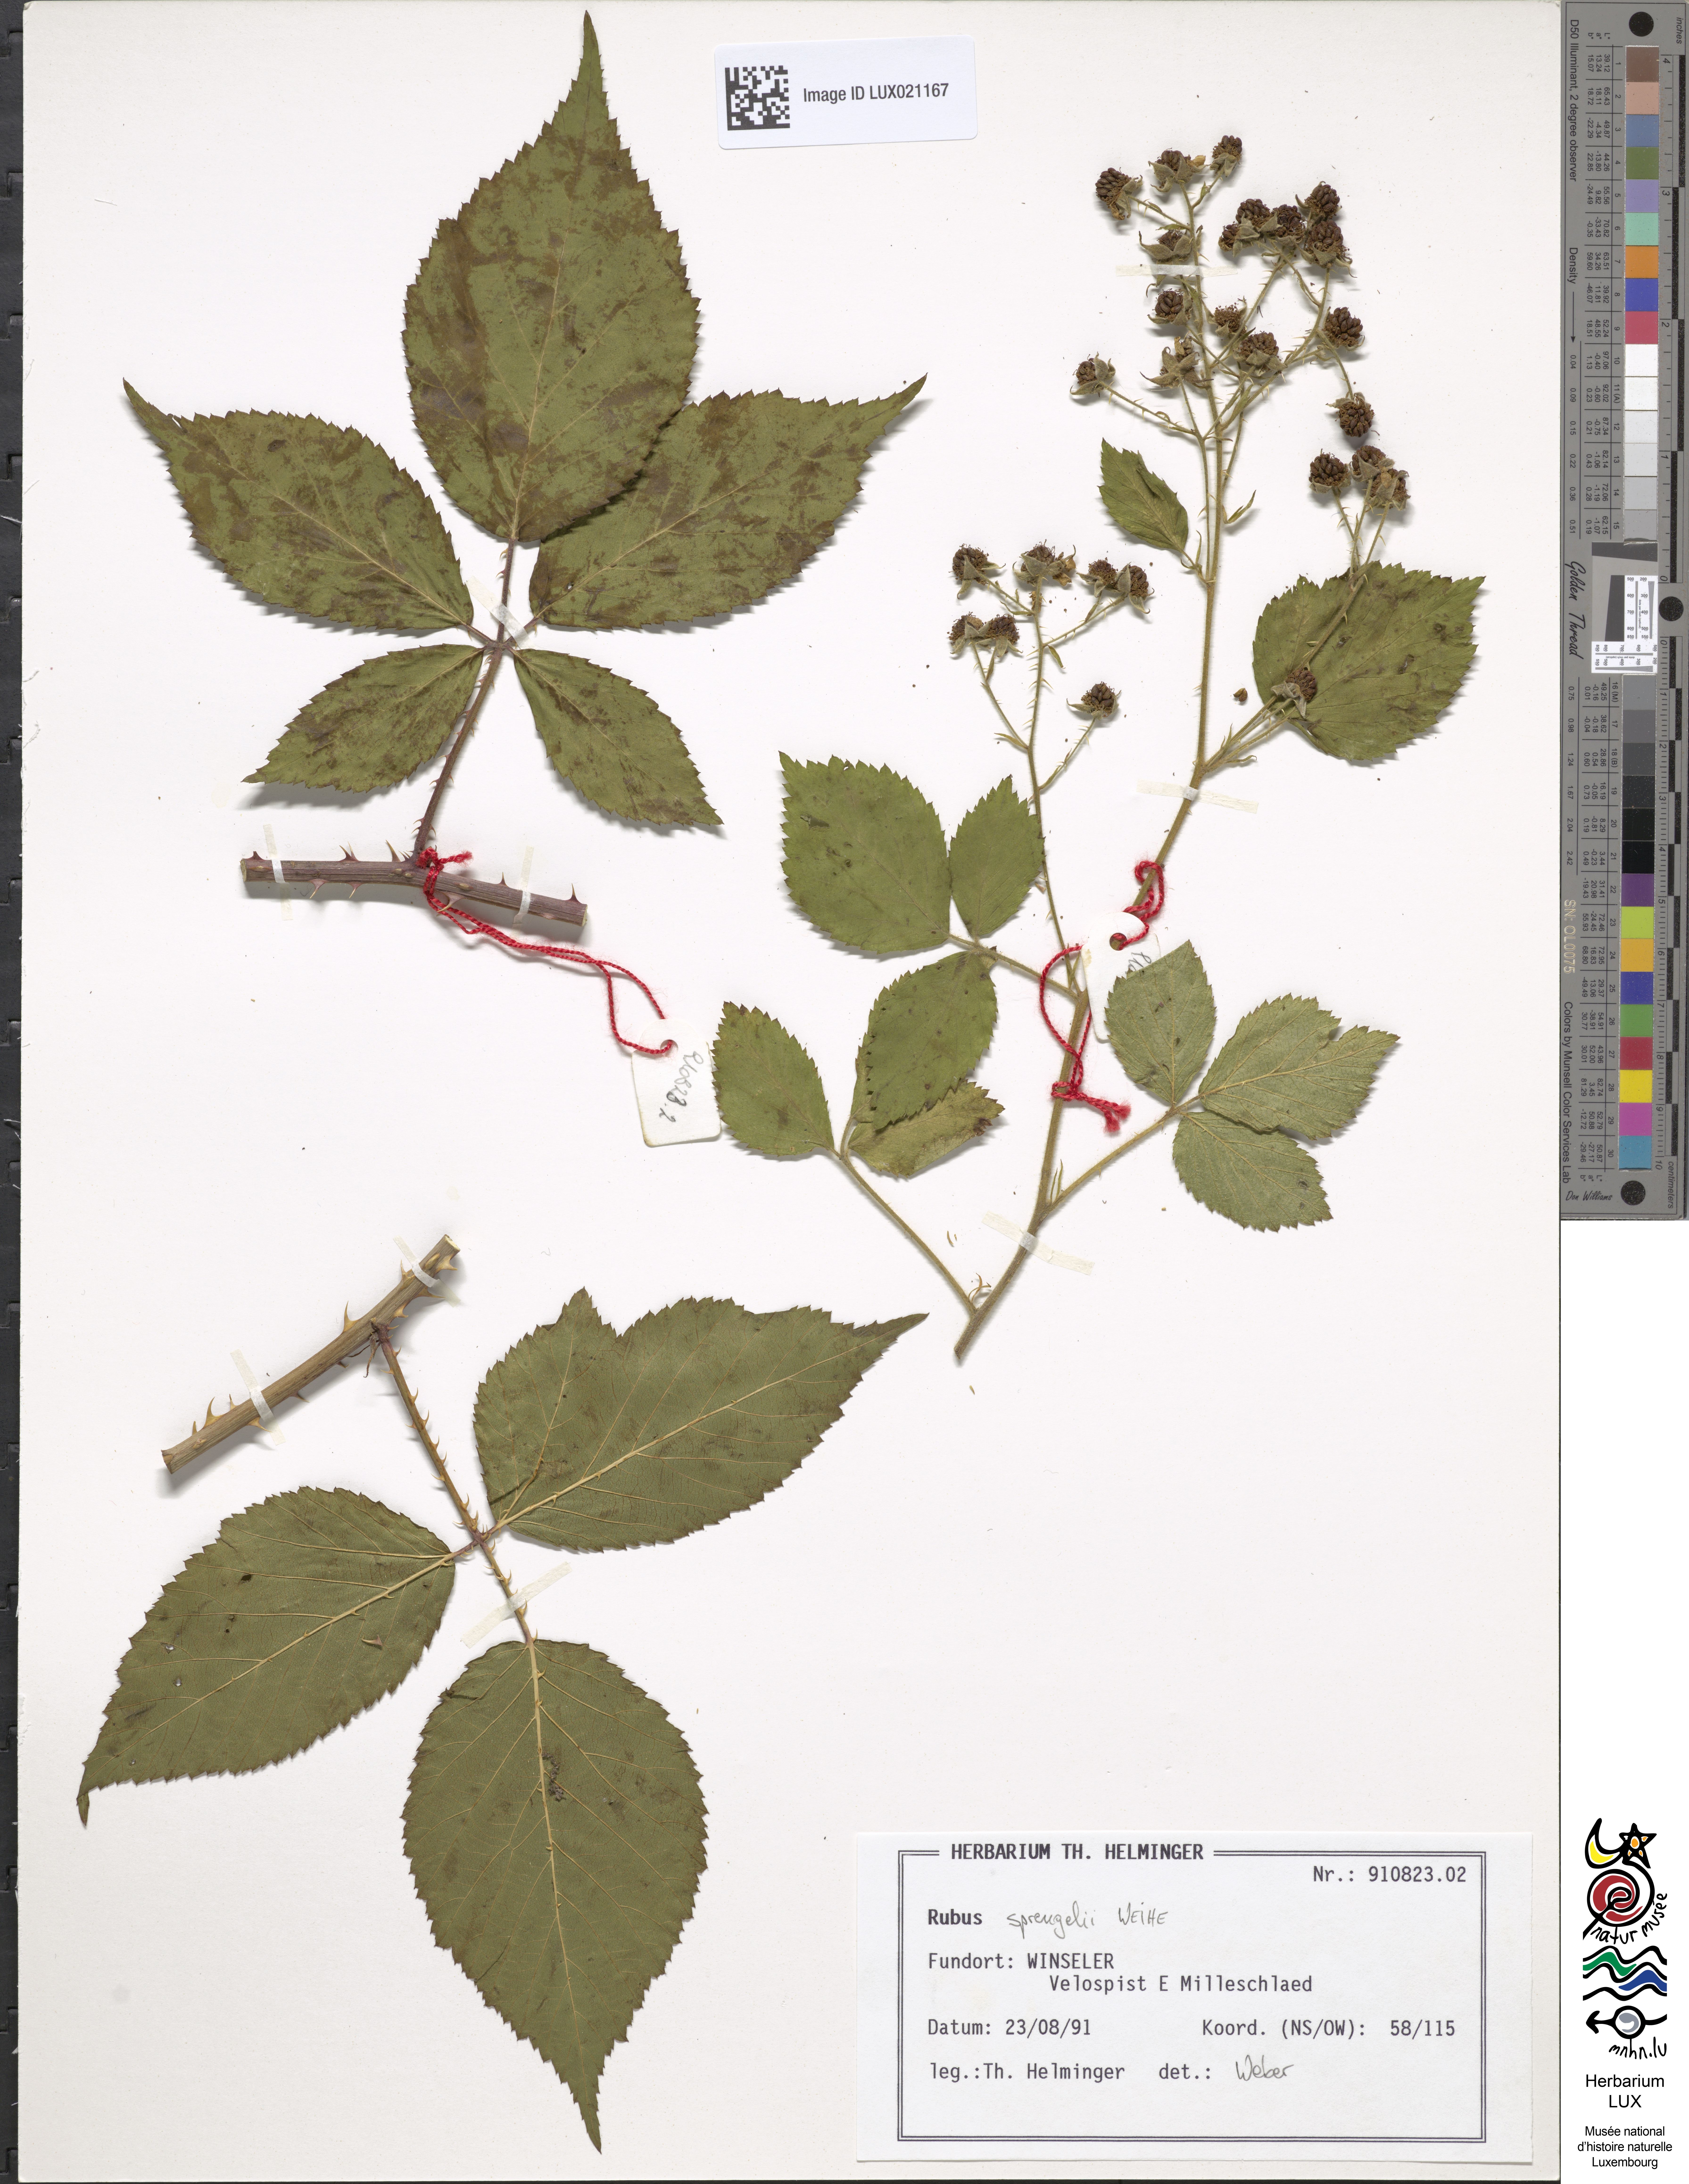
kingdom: Plantae
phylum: Tracheophyta
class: Magnoliopsida
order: Rosales
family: Rosaceae
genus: Rubus
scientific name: Rubus
